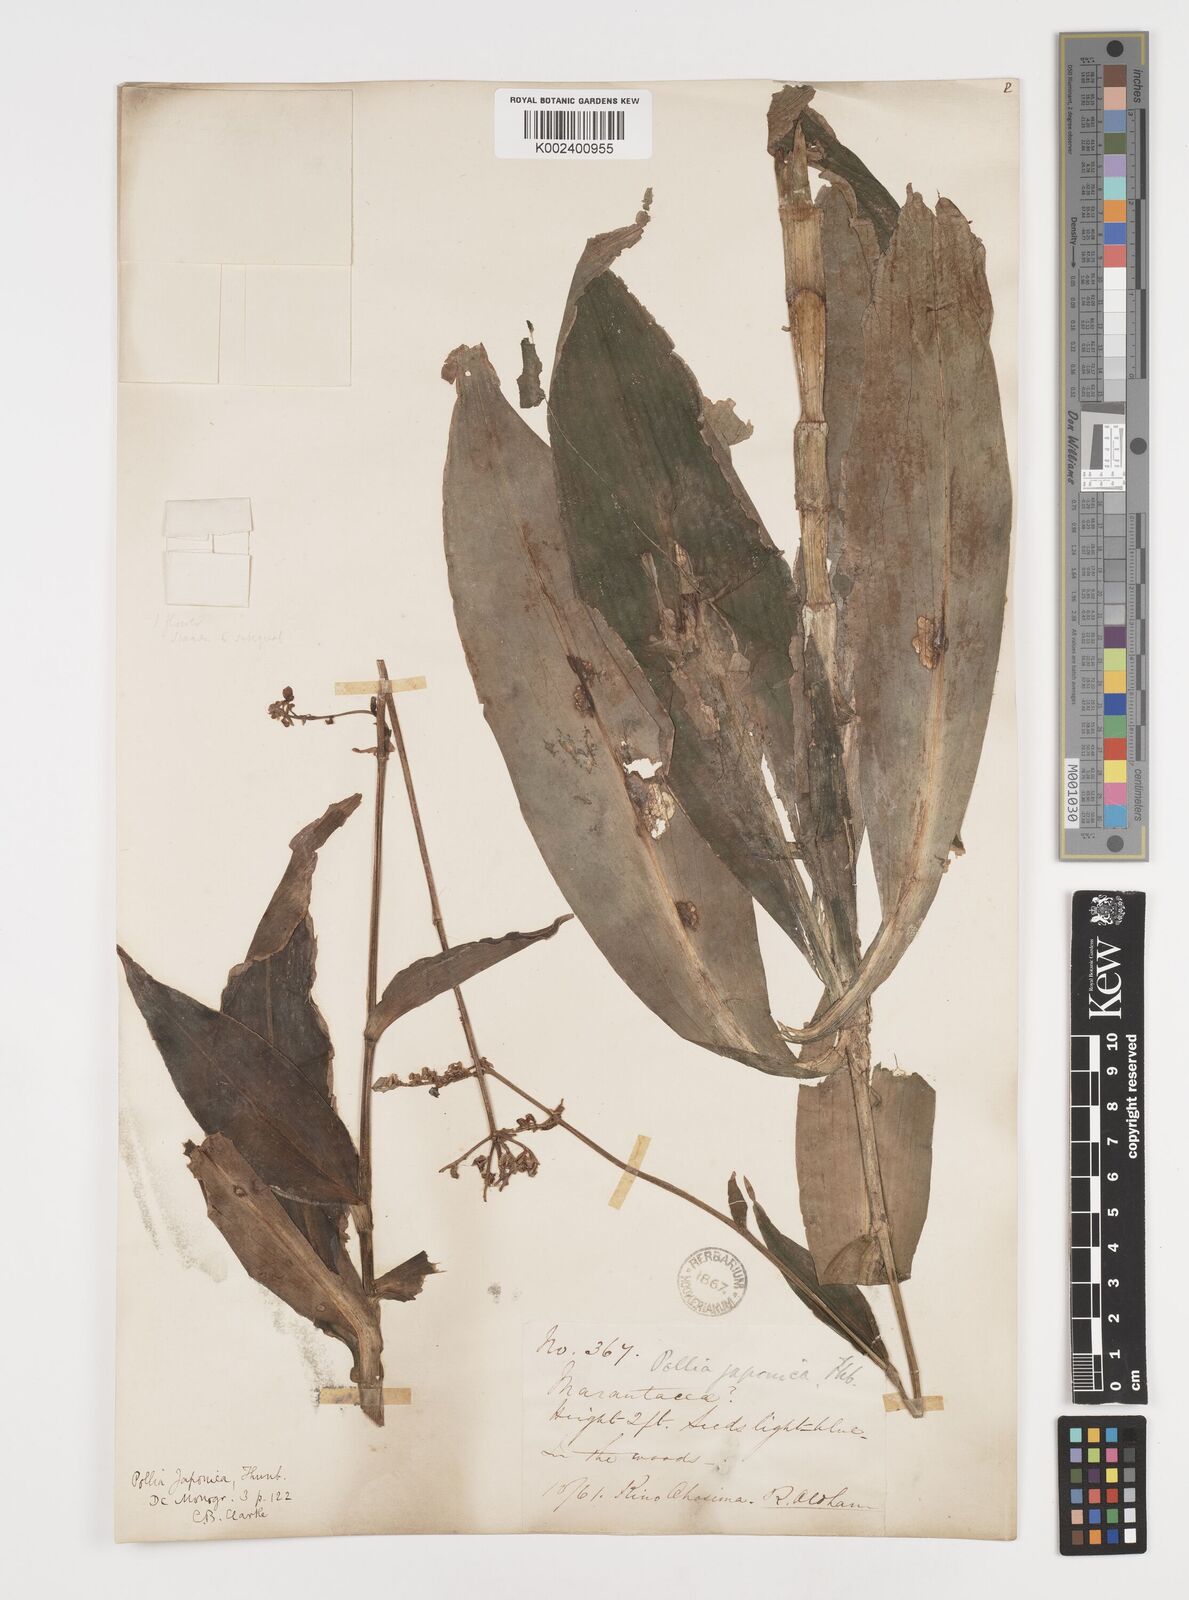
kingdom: Plantae
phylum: Tracheophyta
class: Liliopsida
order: Commelinales
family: Commelinaceae
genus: Pollia
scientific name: Pollia japonica
